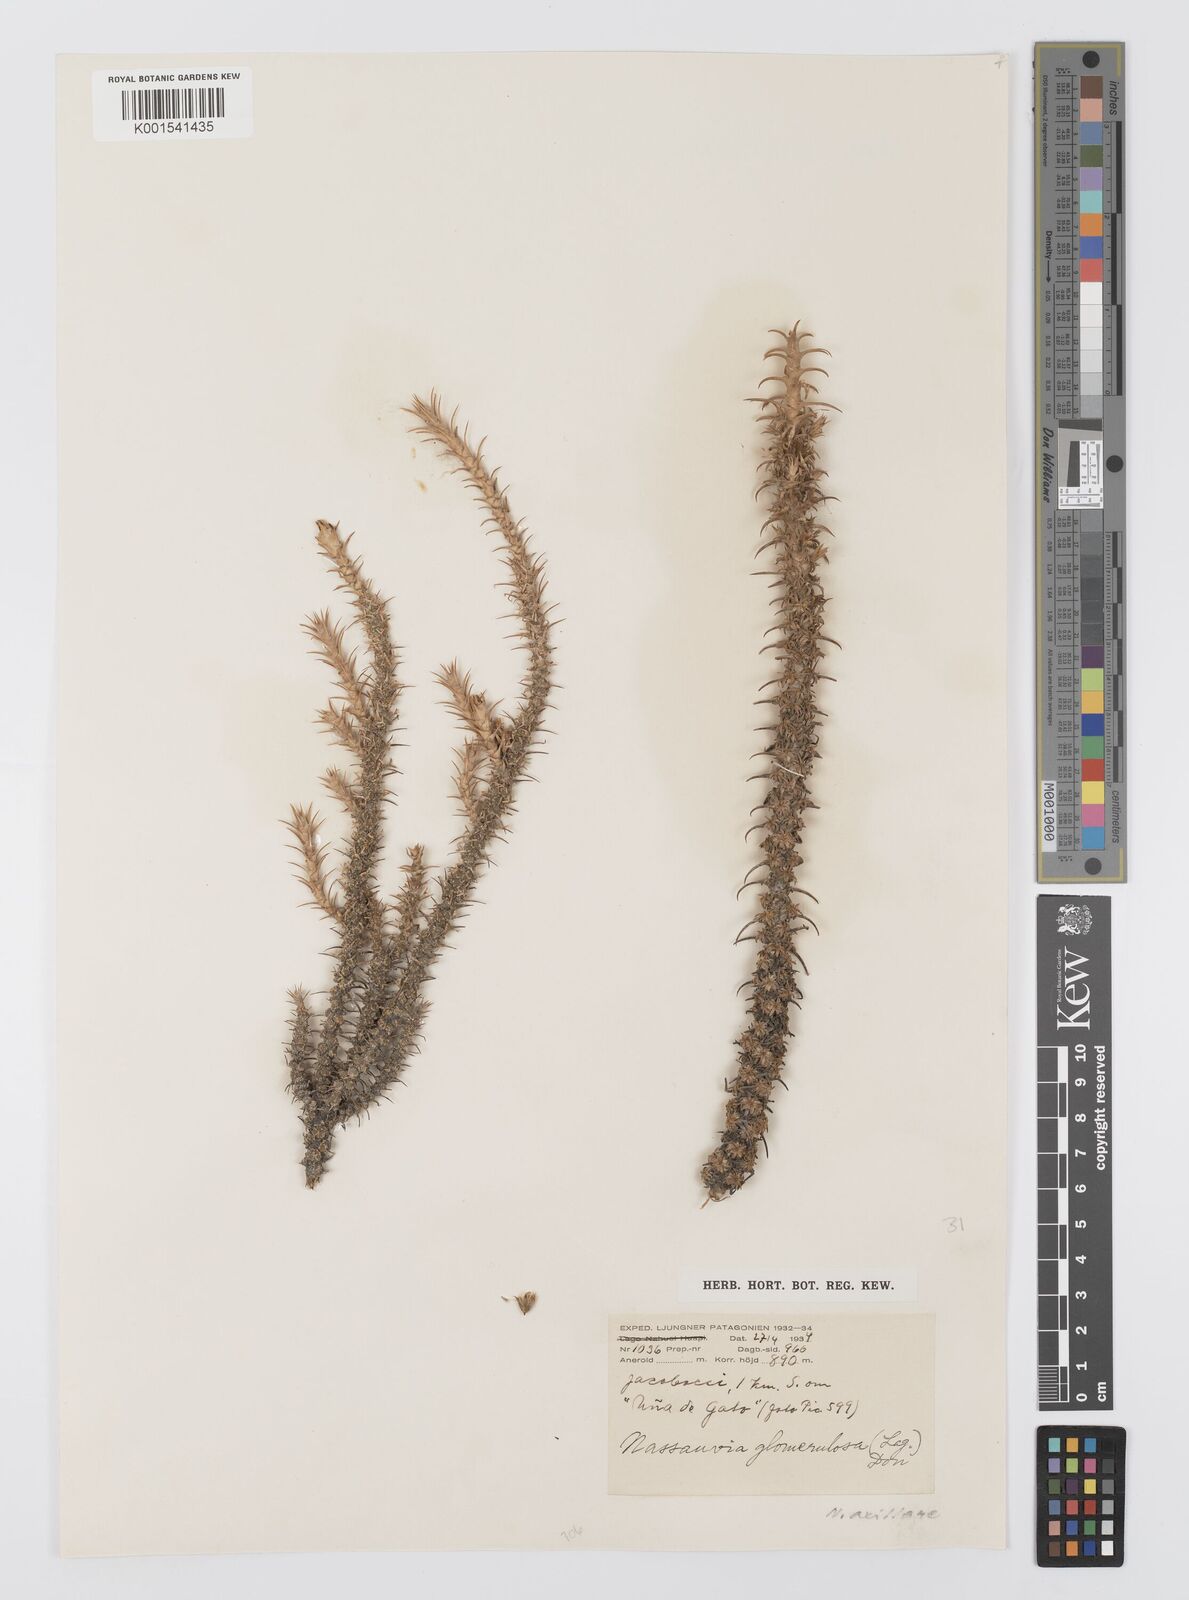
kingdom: Plantae
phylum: Tracheophyta
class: Magnoliopsida
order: Asterales
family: Asteraceae
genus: Nassauvia
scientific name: Nassauvia axillaris
